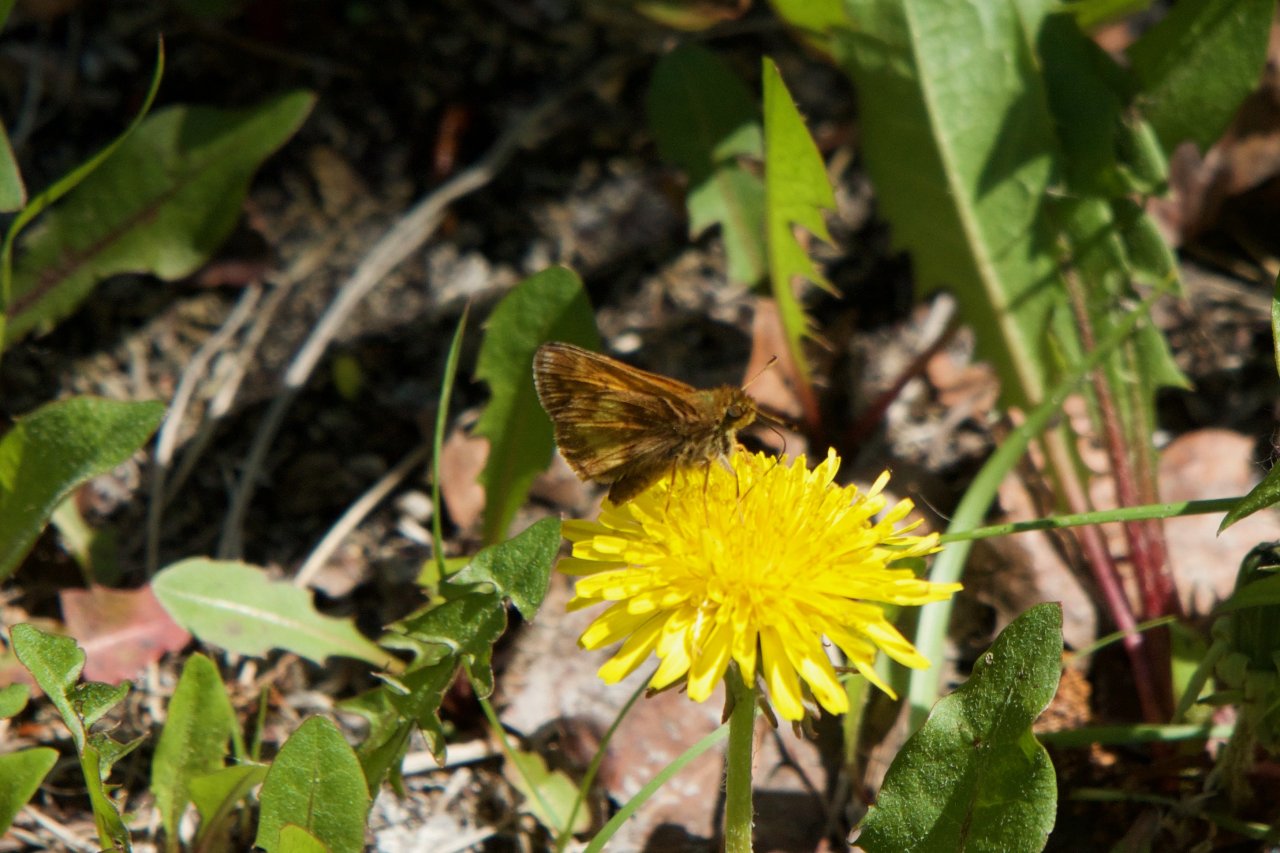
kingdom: Animalia
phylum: Arthropoda
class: Insecta
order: Lepidoptera
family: Hesperiidae
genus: Lon
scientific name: Lon hobomok
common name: Hobomok Skipper
